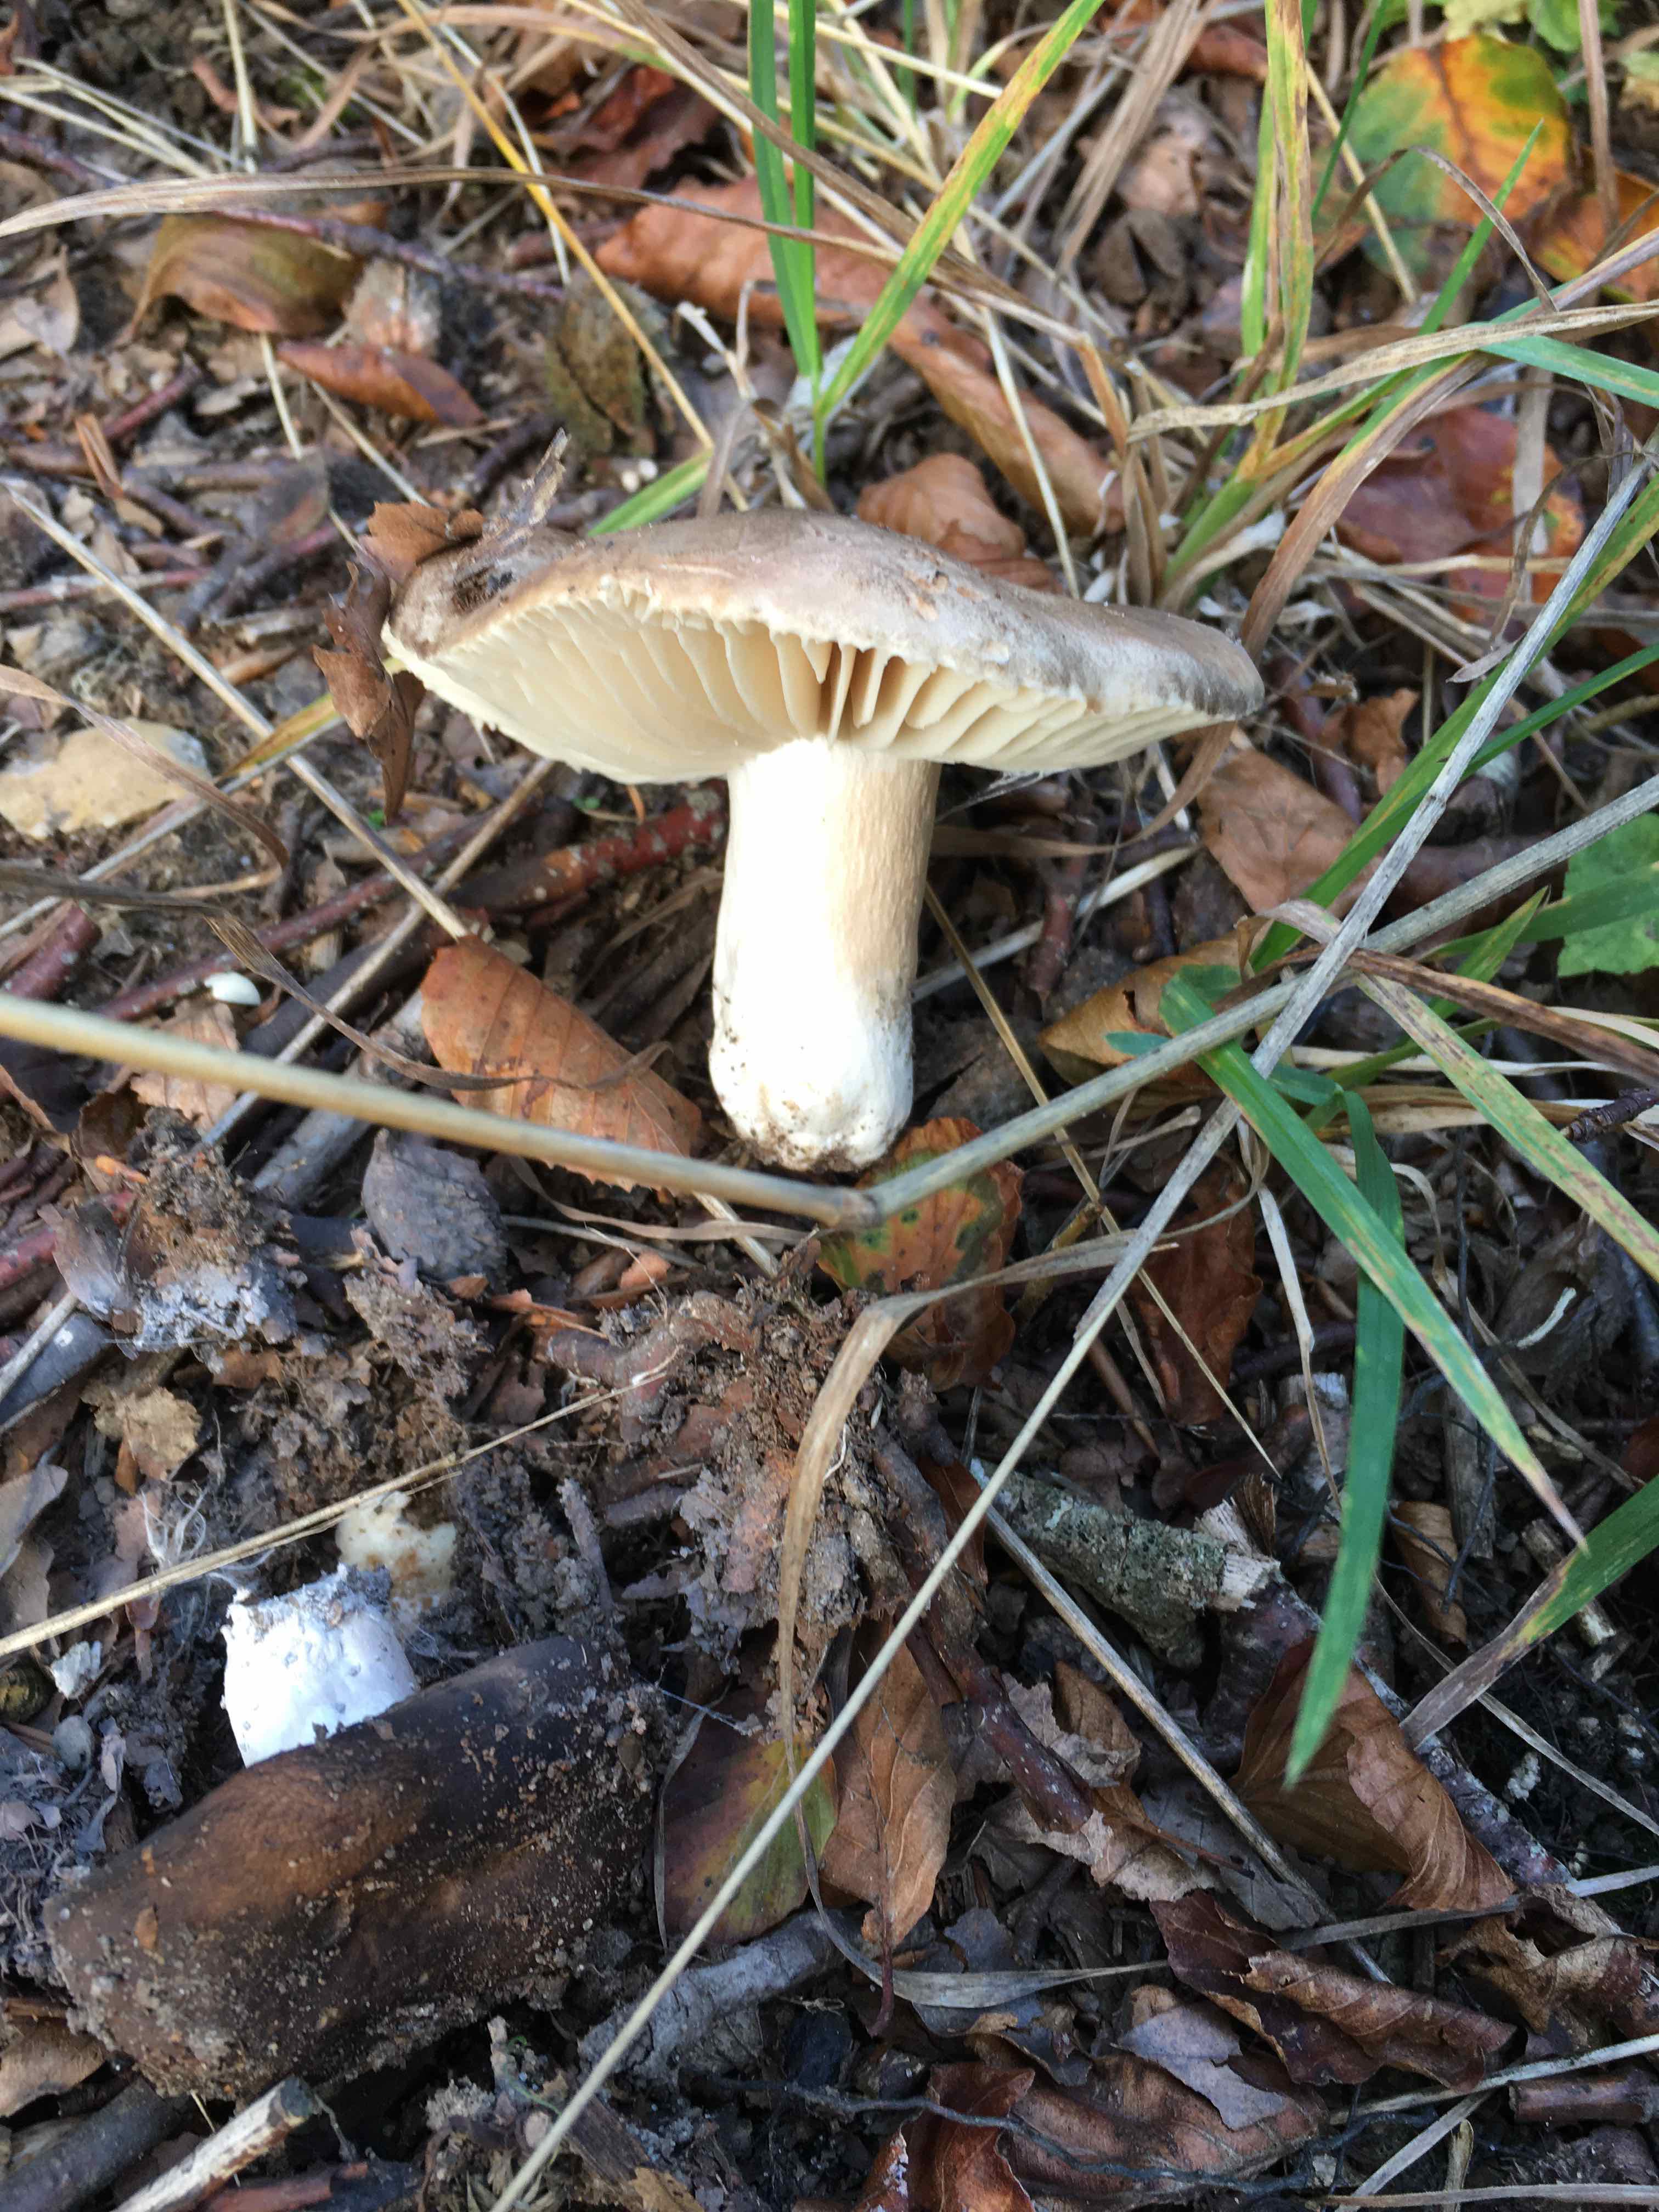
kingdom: Fungi
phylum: Basidiomycota
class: Agaricomycetes
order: Russulales
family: Russulaceae
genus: Russula
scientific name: Russula adusta
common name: sværtende skørhat
